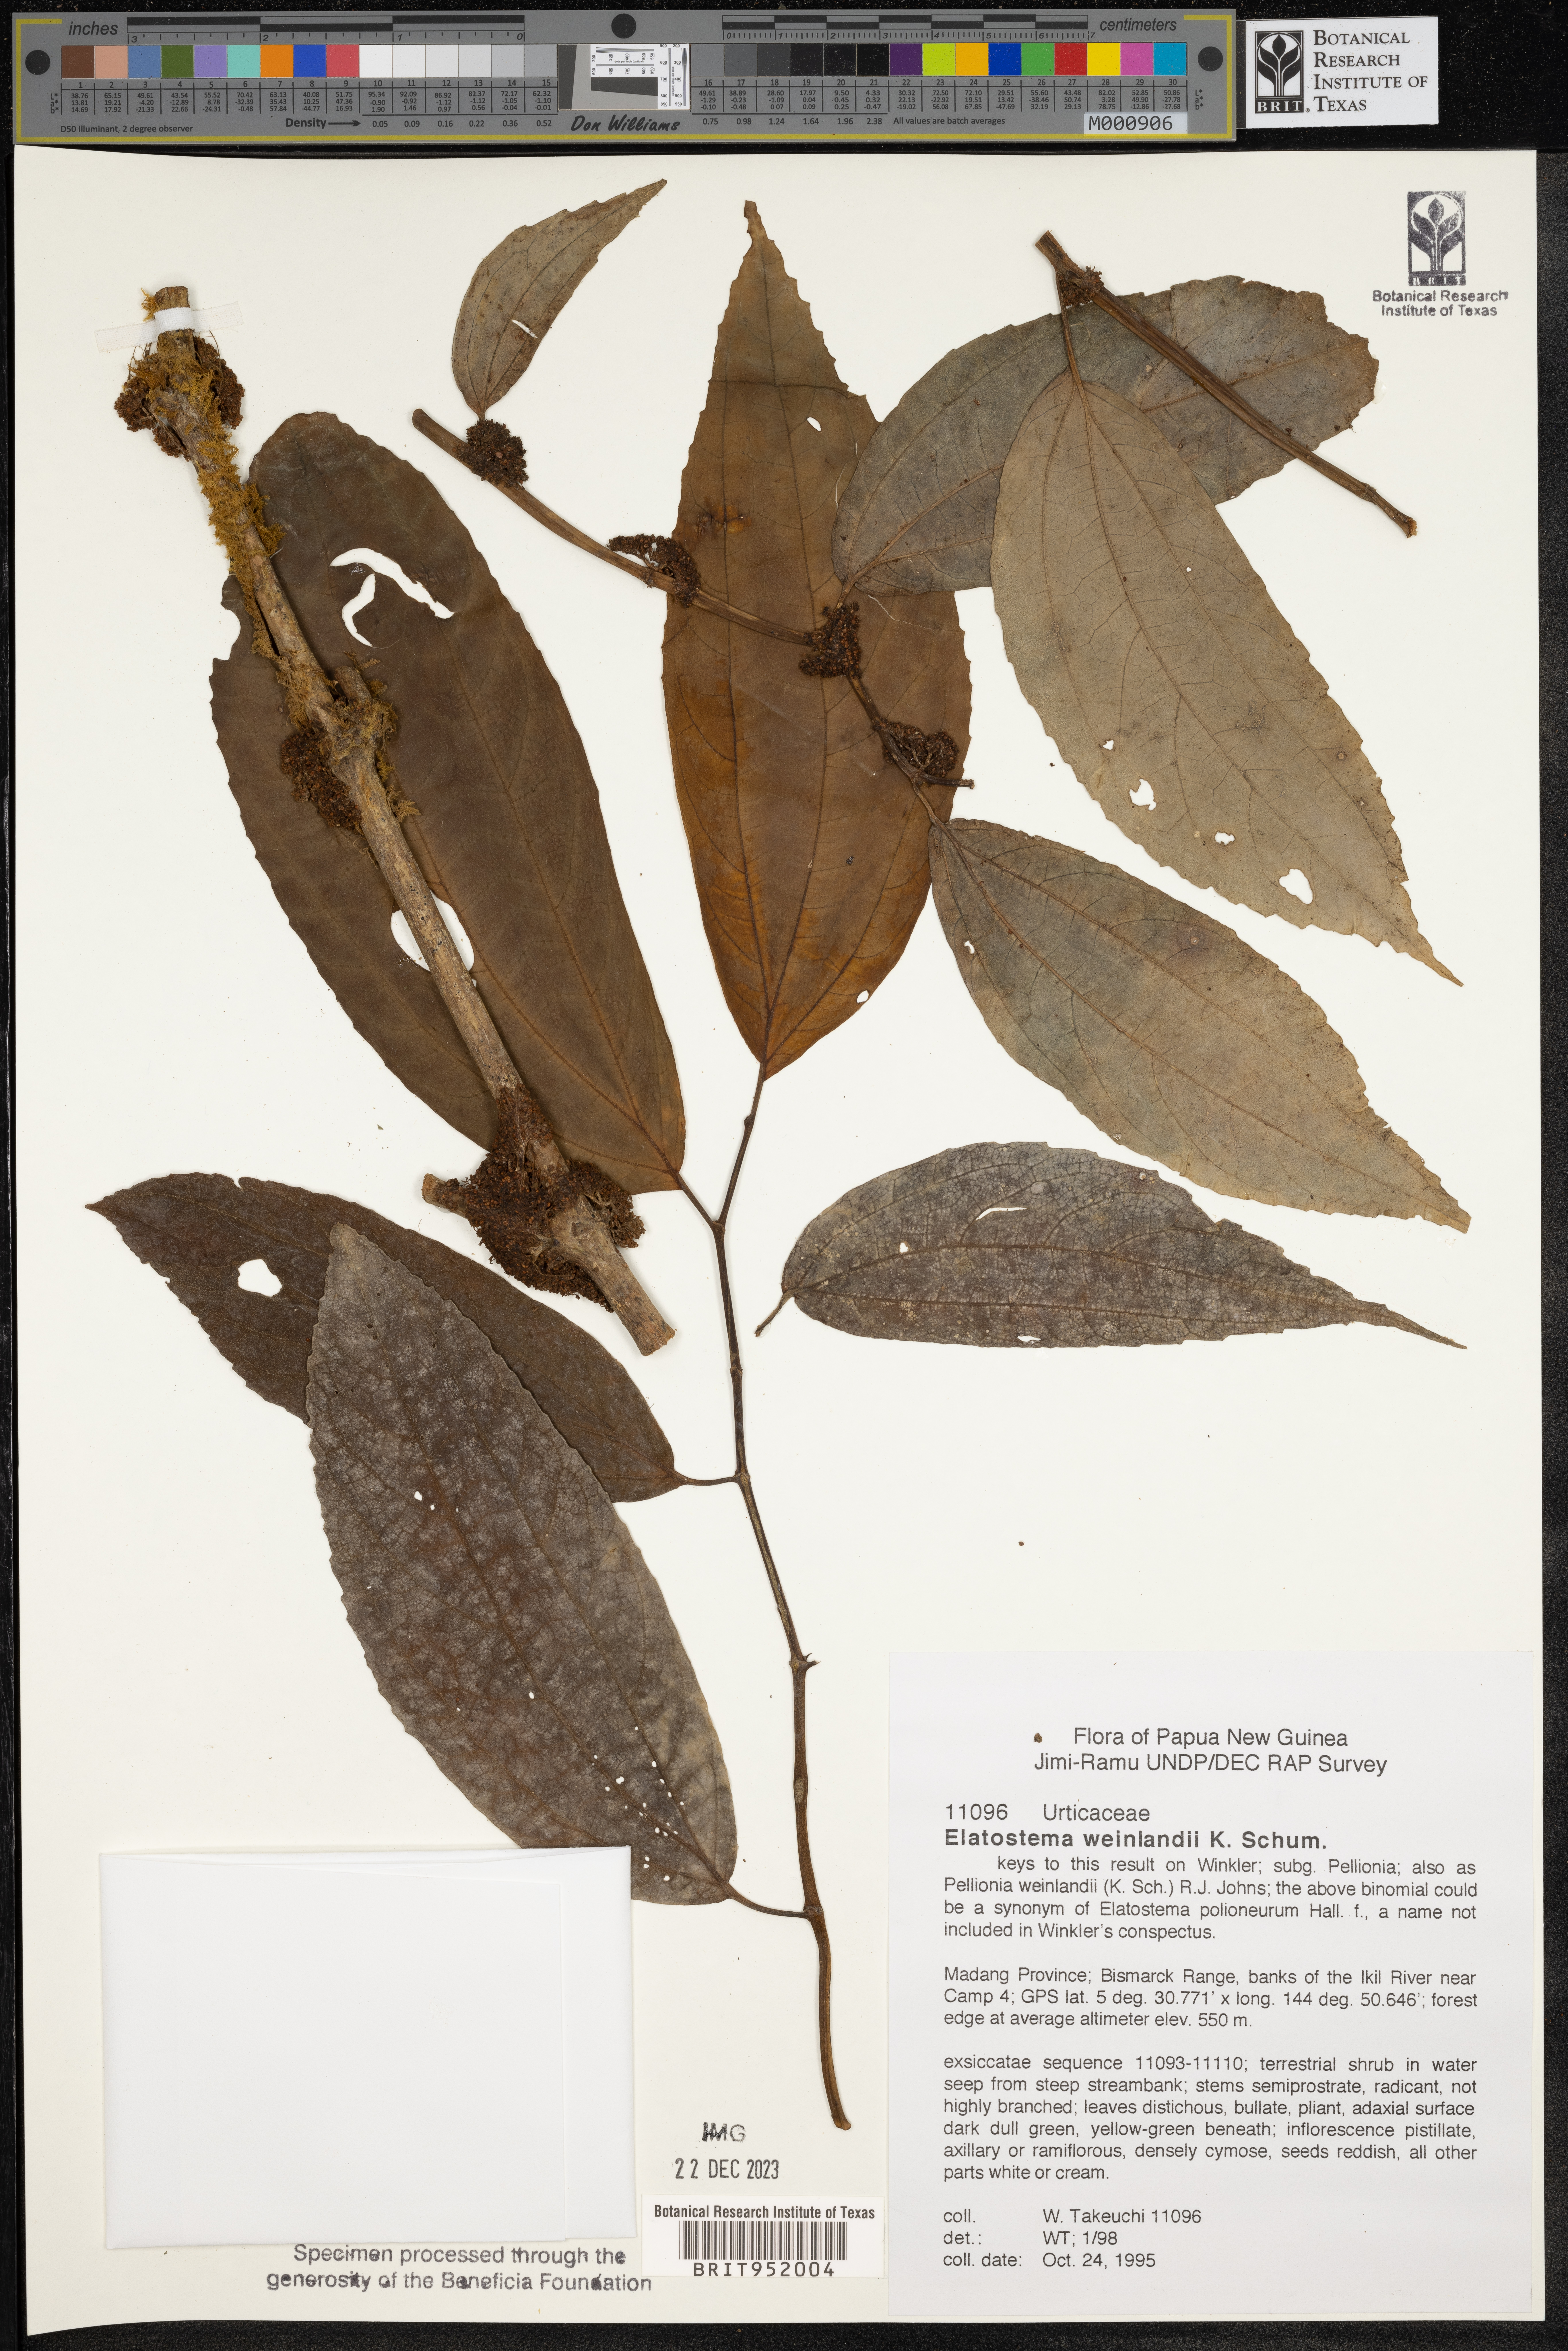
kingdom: Plantae
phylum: Tracheophyta
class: Magnoliopsida
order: Rosales
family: Urticaceae
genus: Elatostema
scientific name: Elatostema
